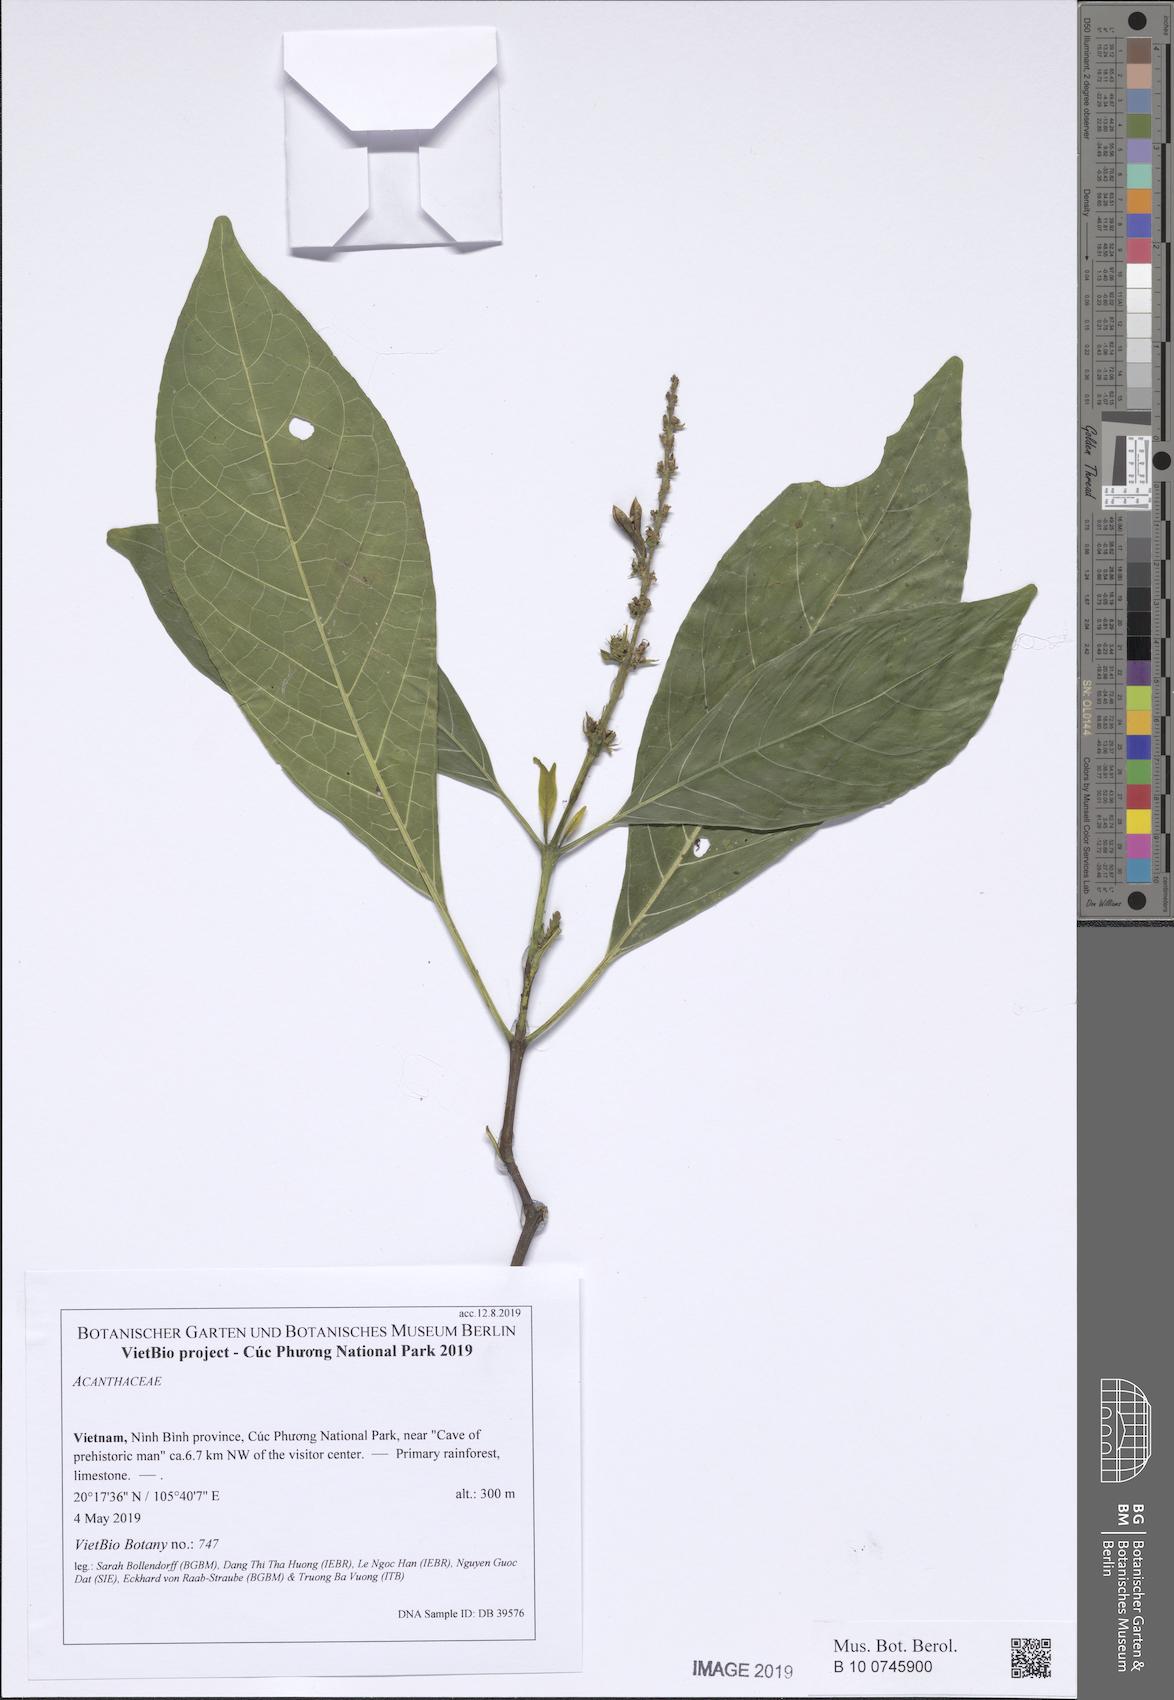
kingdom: Plantae
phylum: Tracheophyta
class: Magnoliopsida
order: Lamiales
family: Acanthaceae
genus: Phlogacanthus
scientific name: Phlogacanthus
